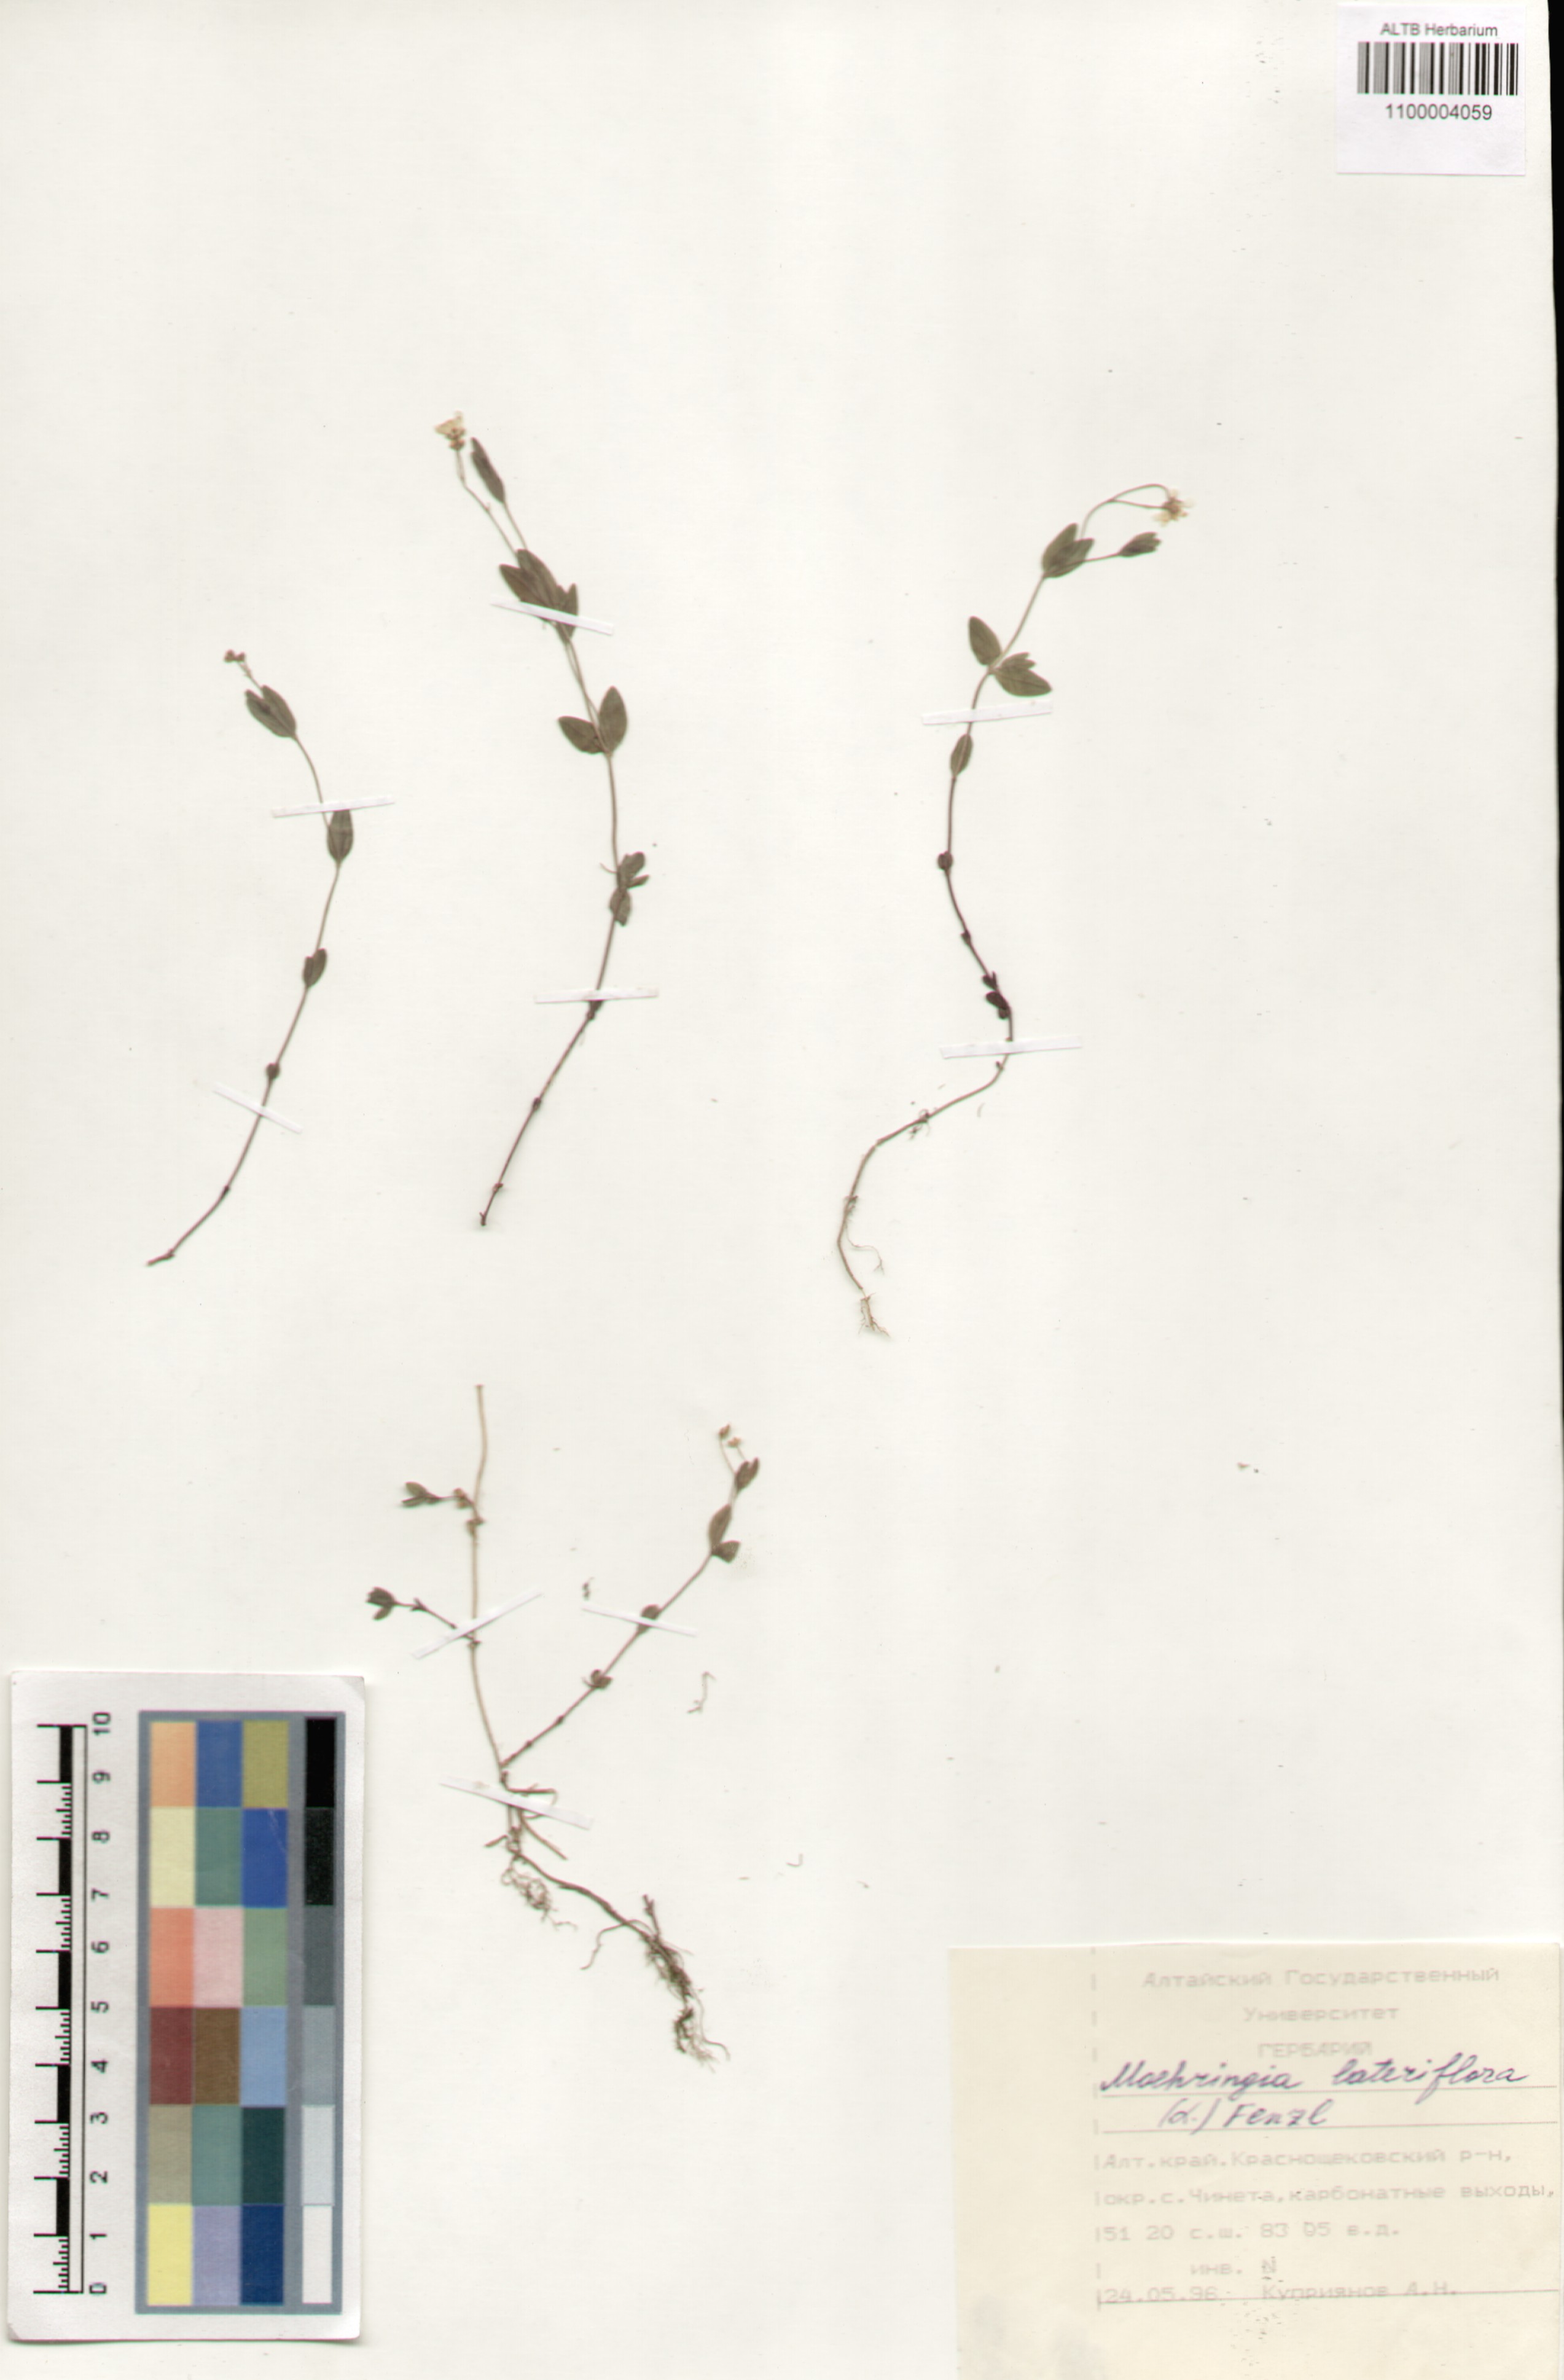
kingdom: Plantae
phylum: Tracheophyta
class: Magnoliopsida
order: Caryophyllales
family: Caryophyllaceae
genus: Moehringia
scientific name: Moehringia lateriflora
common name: Blunt-leaved sandwort
